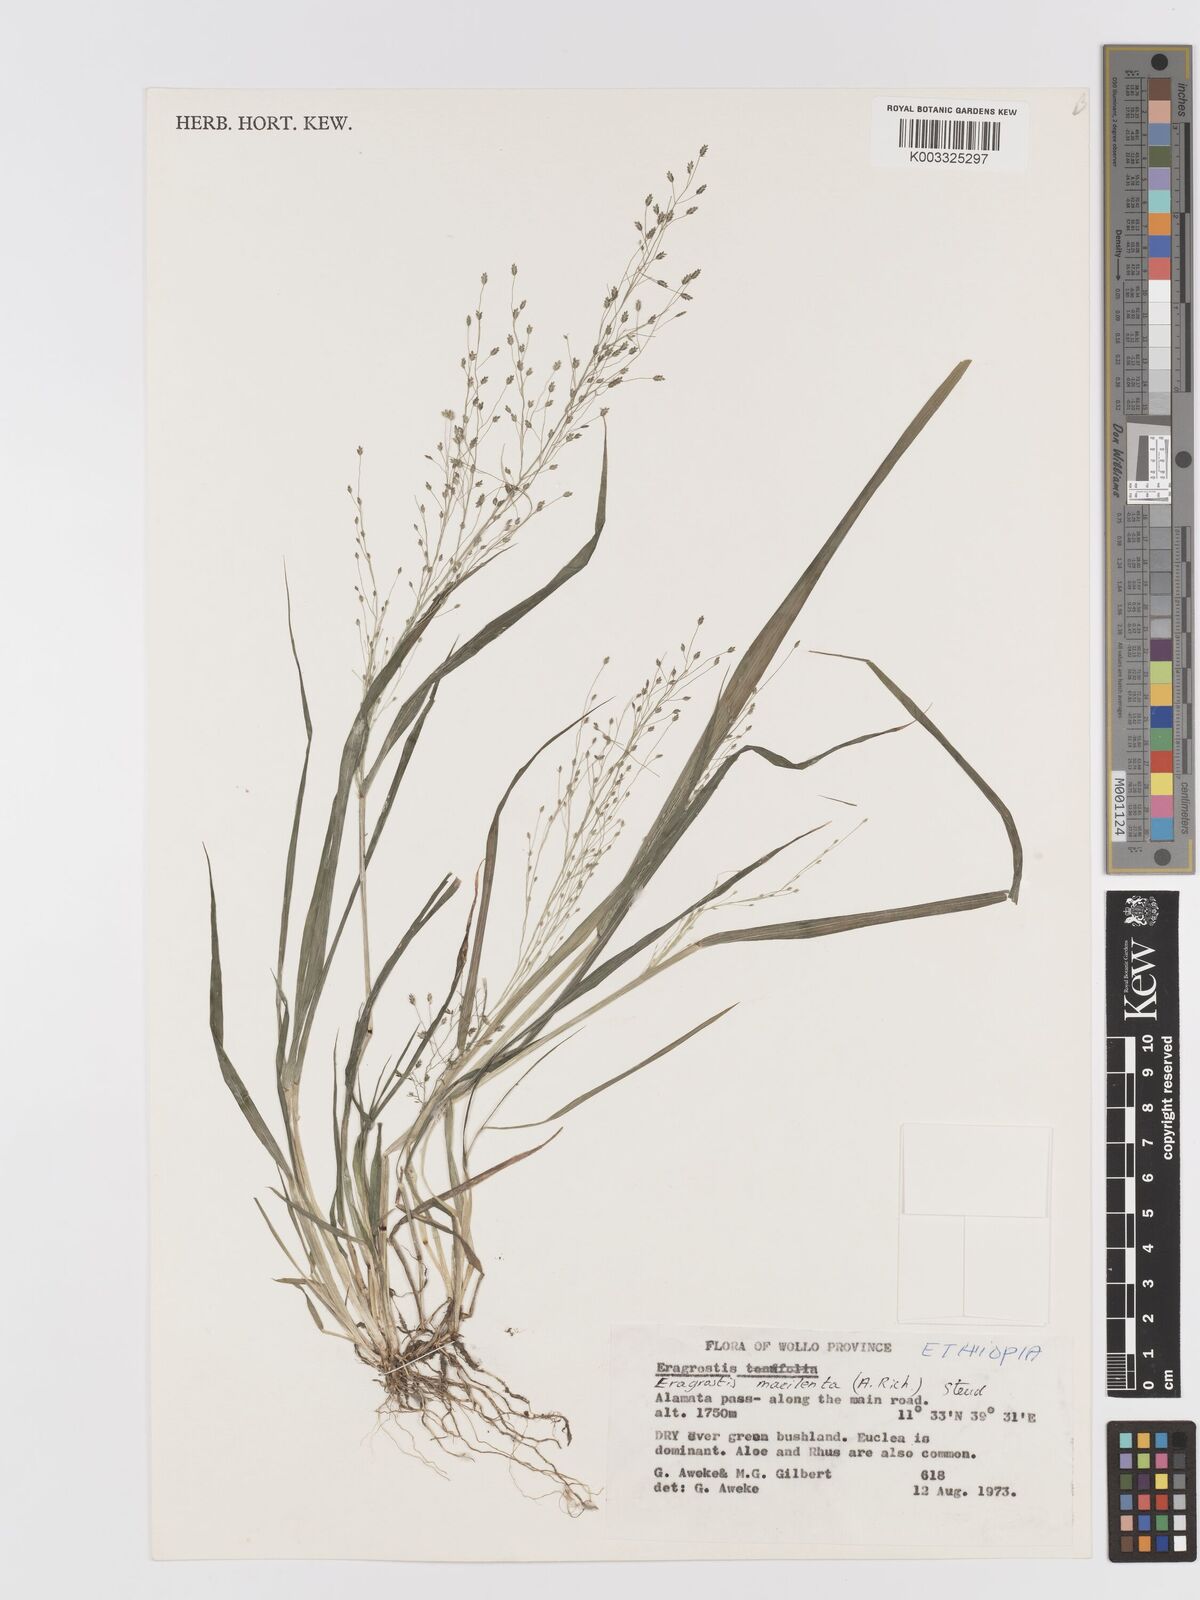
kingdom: Plantae
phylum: Tracheophyta
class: Liliopsida
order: Poales
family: Poaceae
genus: Eragrostis
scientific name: Eragrostis macilenta
